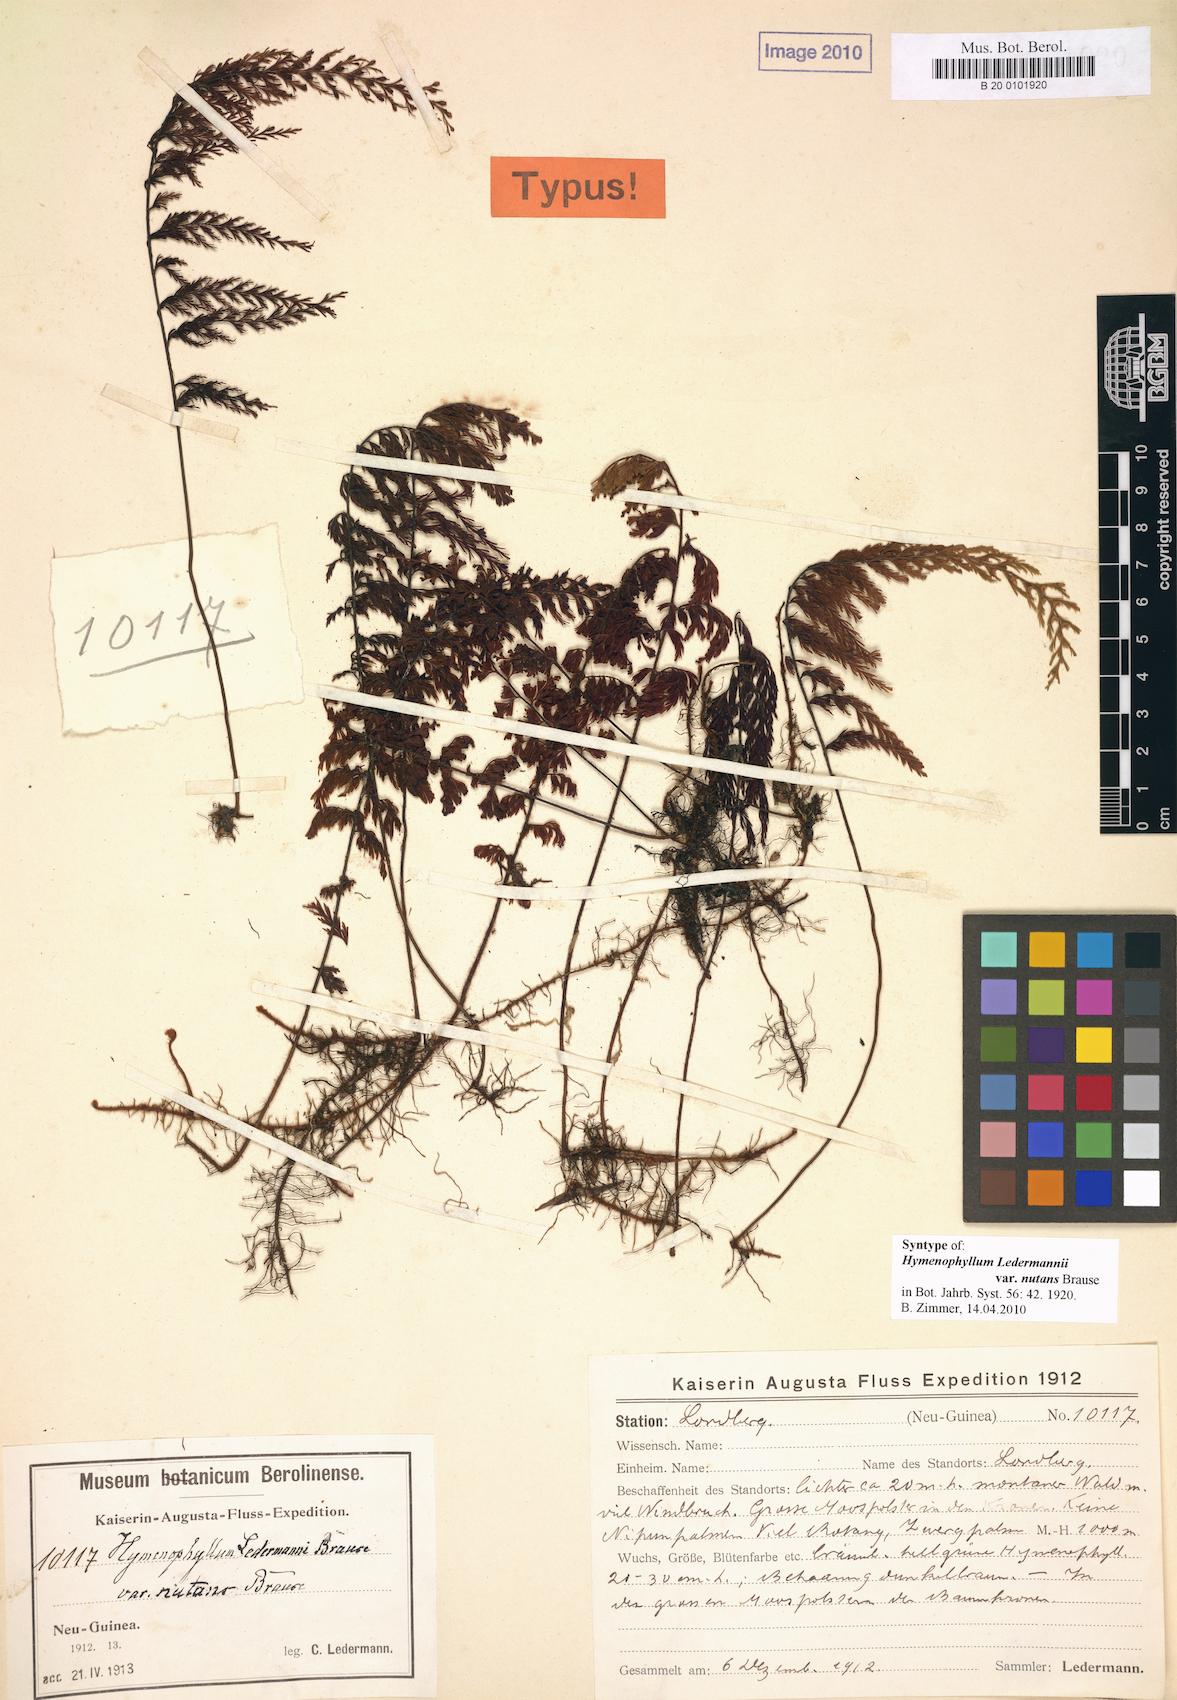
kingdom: Plantae
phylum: Tracheophyta
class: Polypodiopsida
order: Hymenophyllales
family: Hymenophyllaceae
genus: Hymenophyllum
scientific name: Hymenophyllum ledermannii
